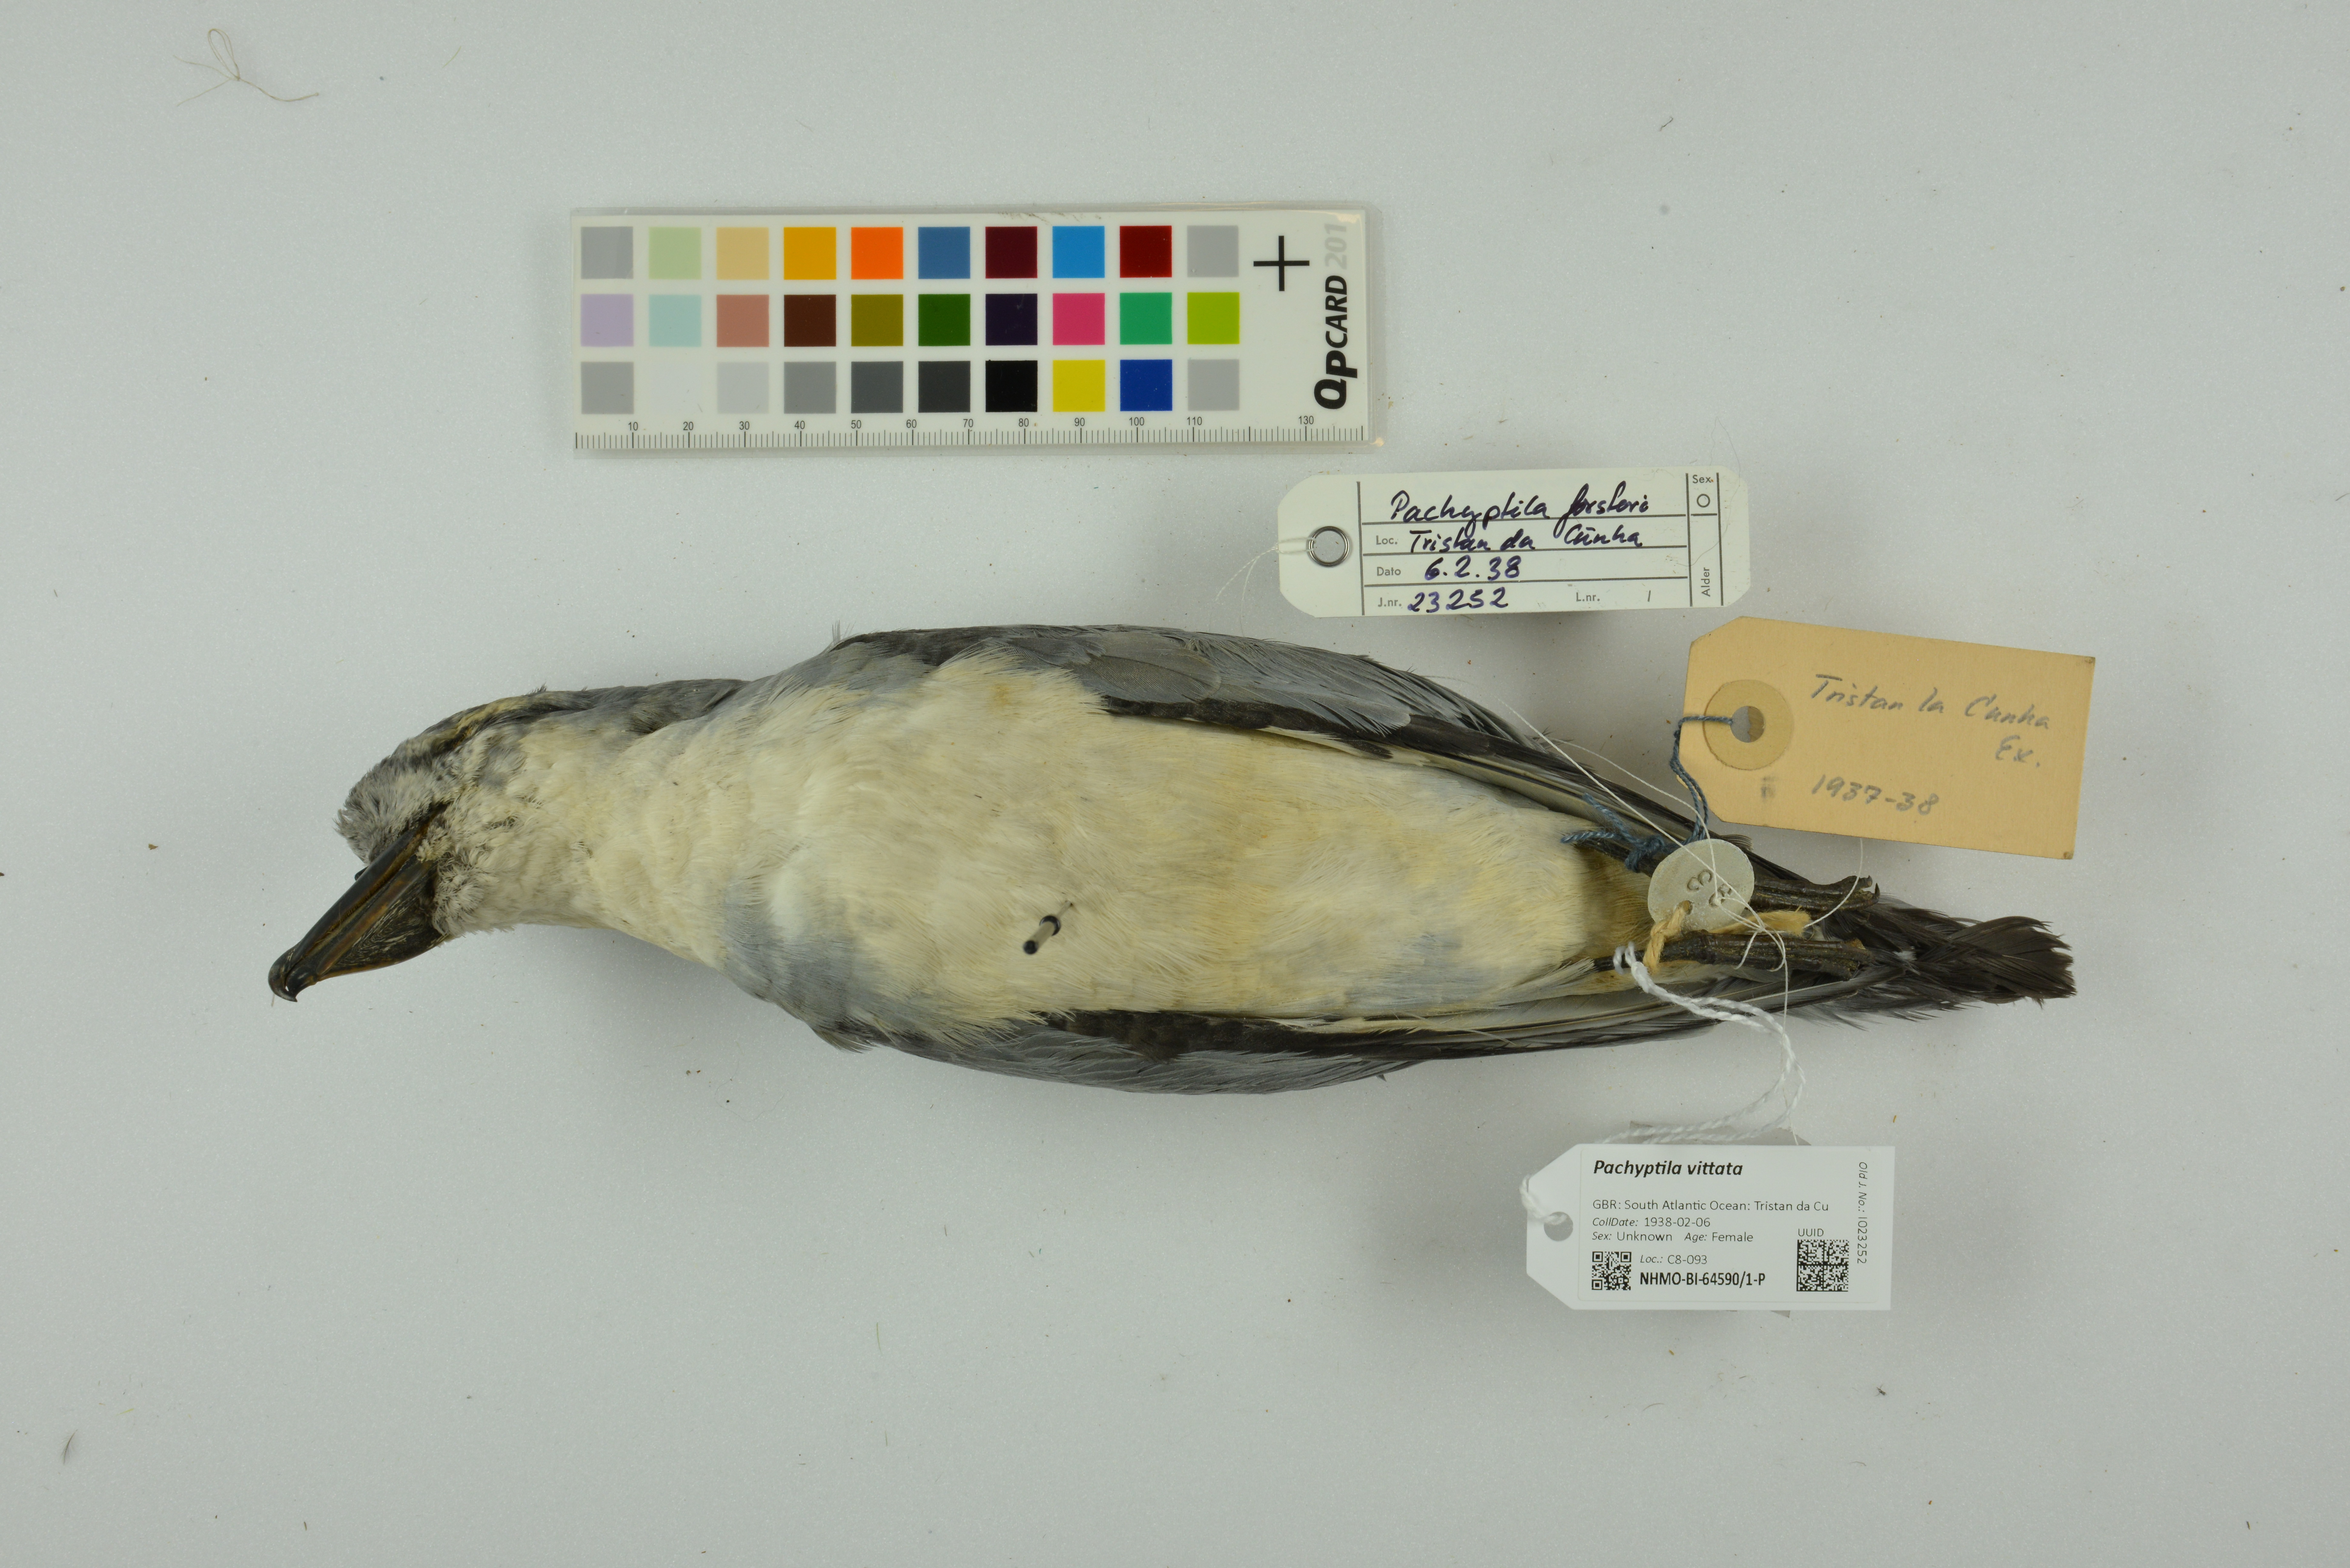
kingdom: Animalia
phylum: Chordata
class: Aves
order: Procellariiformes
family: Procellariidae
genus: Pachyptila
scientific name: Pachyptila vittata
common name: Broad-billed prion
